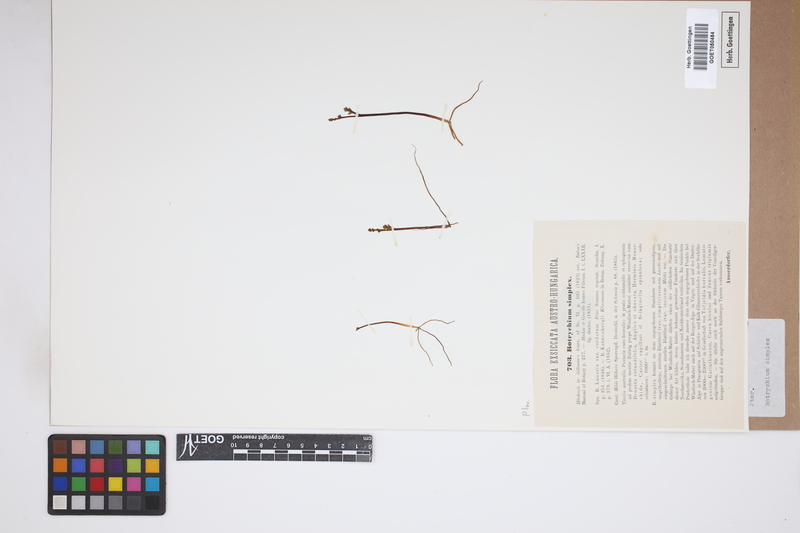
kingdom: Plantae
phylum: Tracheophyta
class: Polypodiopsida
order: Ophioglossales
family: Ophioglossaceae
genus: Botrychium
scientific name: Botrychium simplex
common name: Least moonwort
